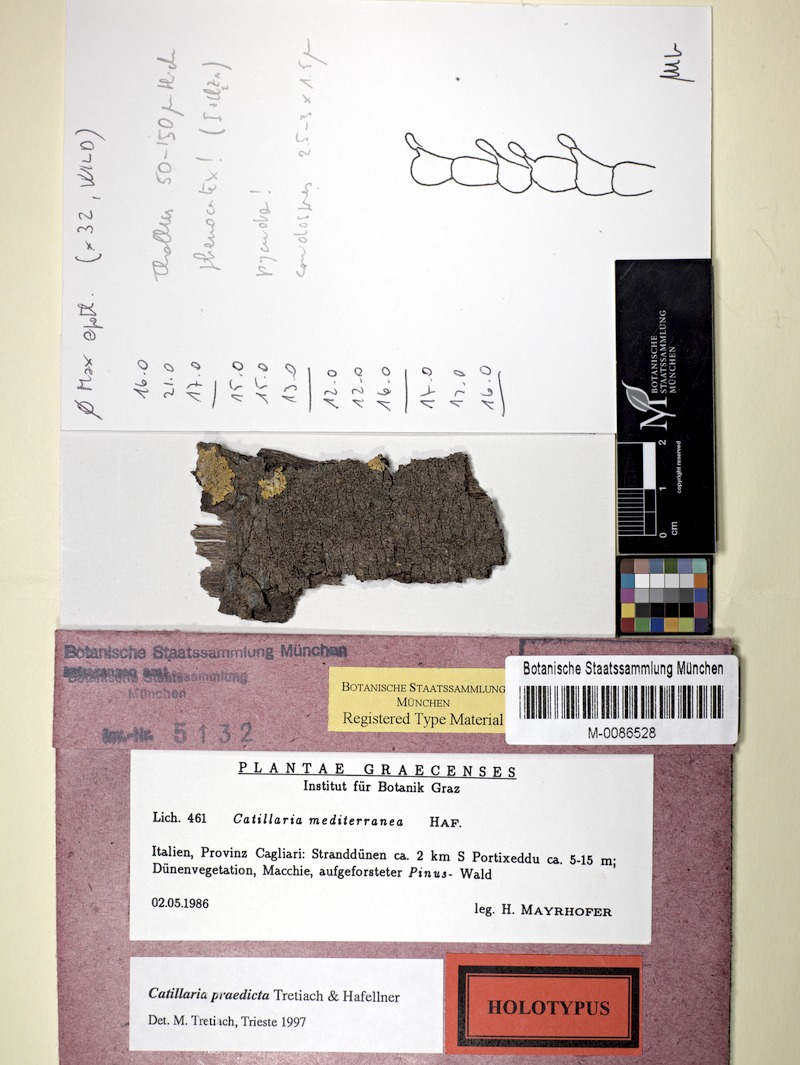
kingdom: Fungi
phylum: Ascomycota
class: Lecanoromycetes
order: Lecanorales
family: Catillariaceae
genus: Catillaria
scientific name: Catillaria
